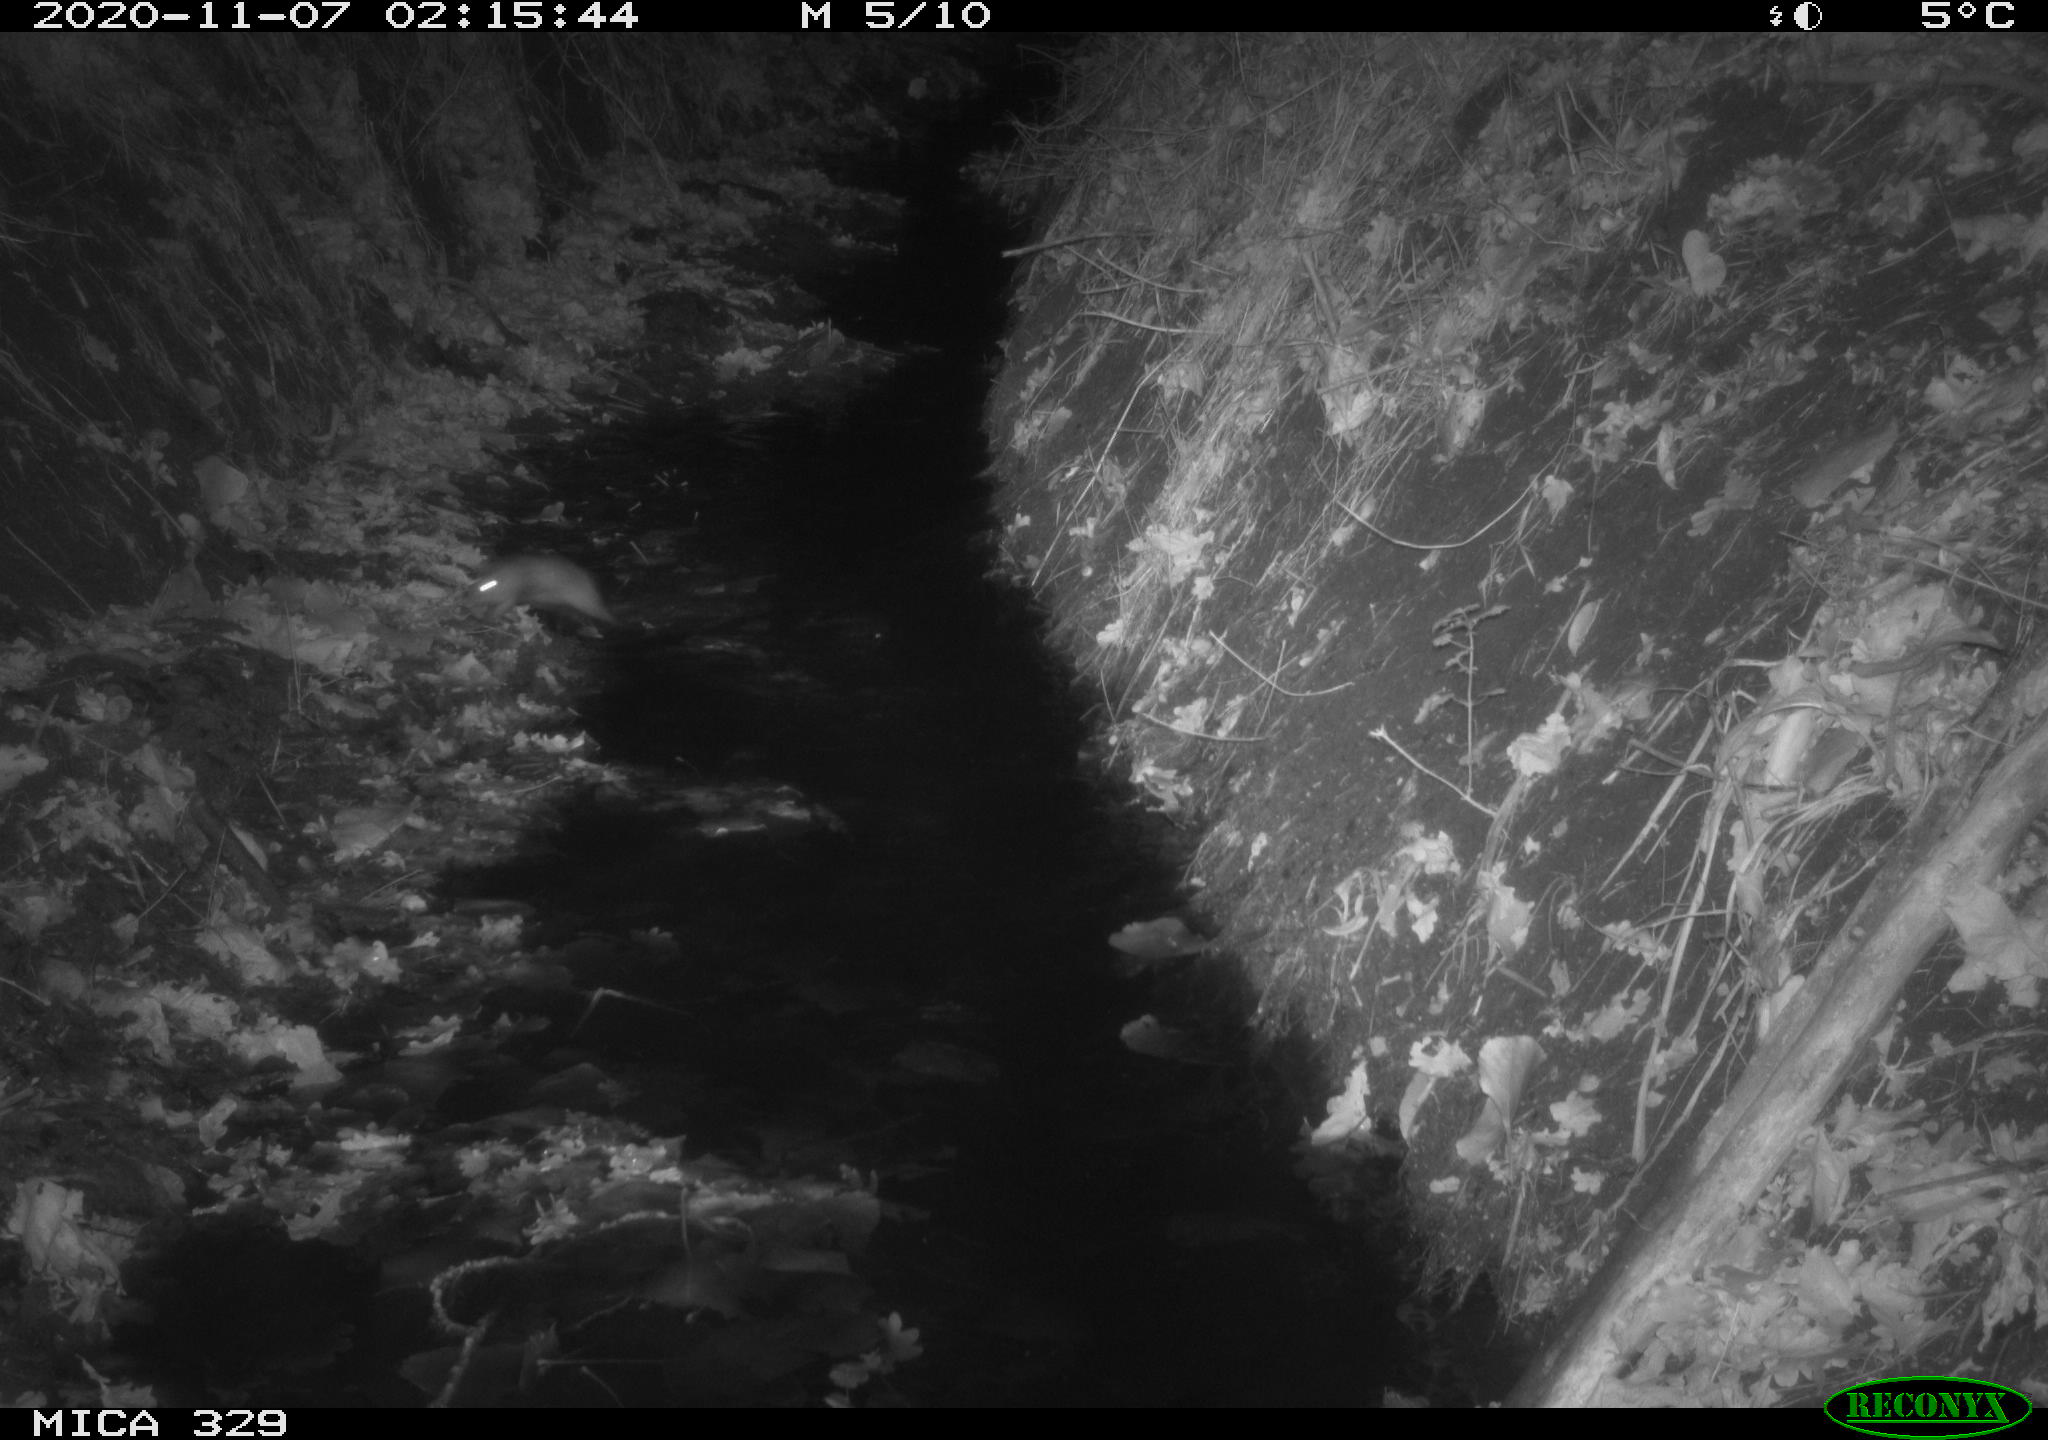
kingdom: Animalia
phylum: Chordata
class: Mammalia
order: Rodentia
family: Muridae
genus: Rattus
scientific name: Rattus norvegicus
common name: Brown rat
